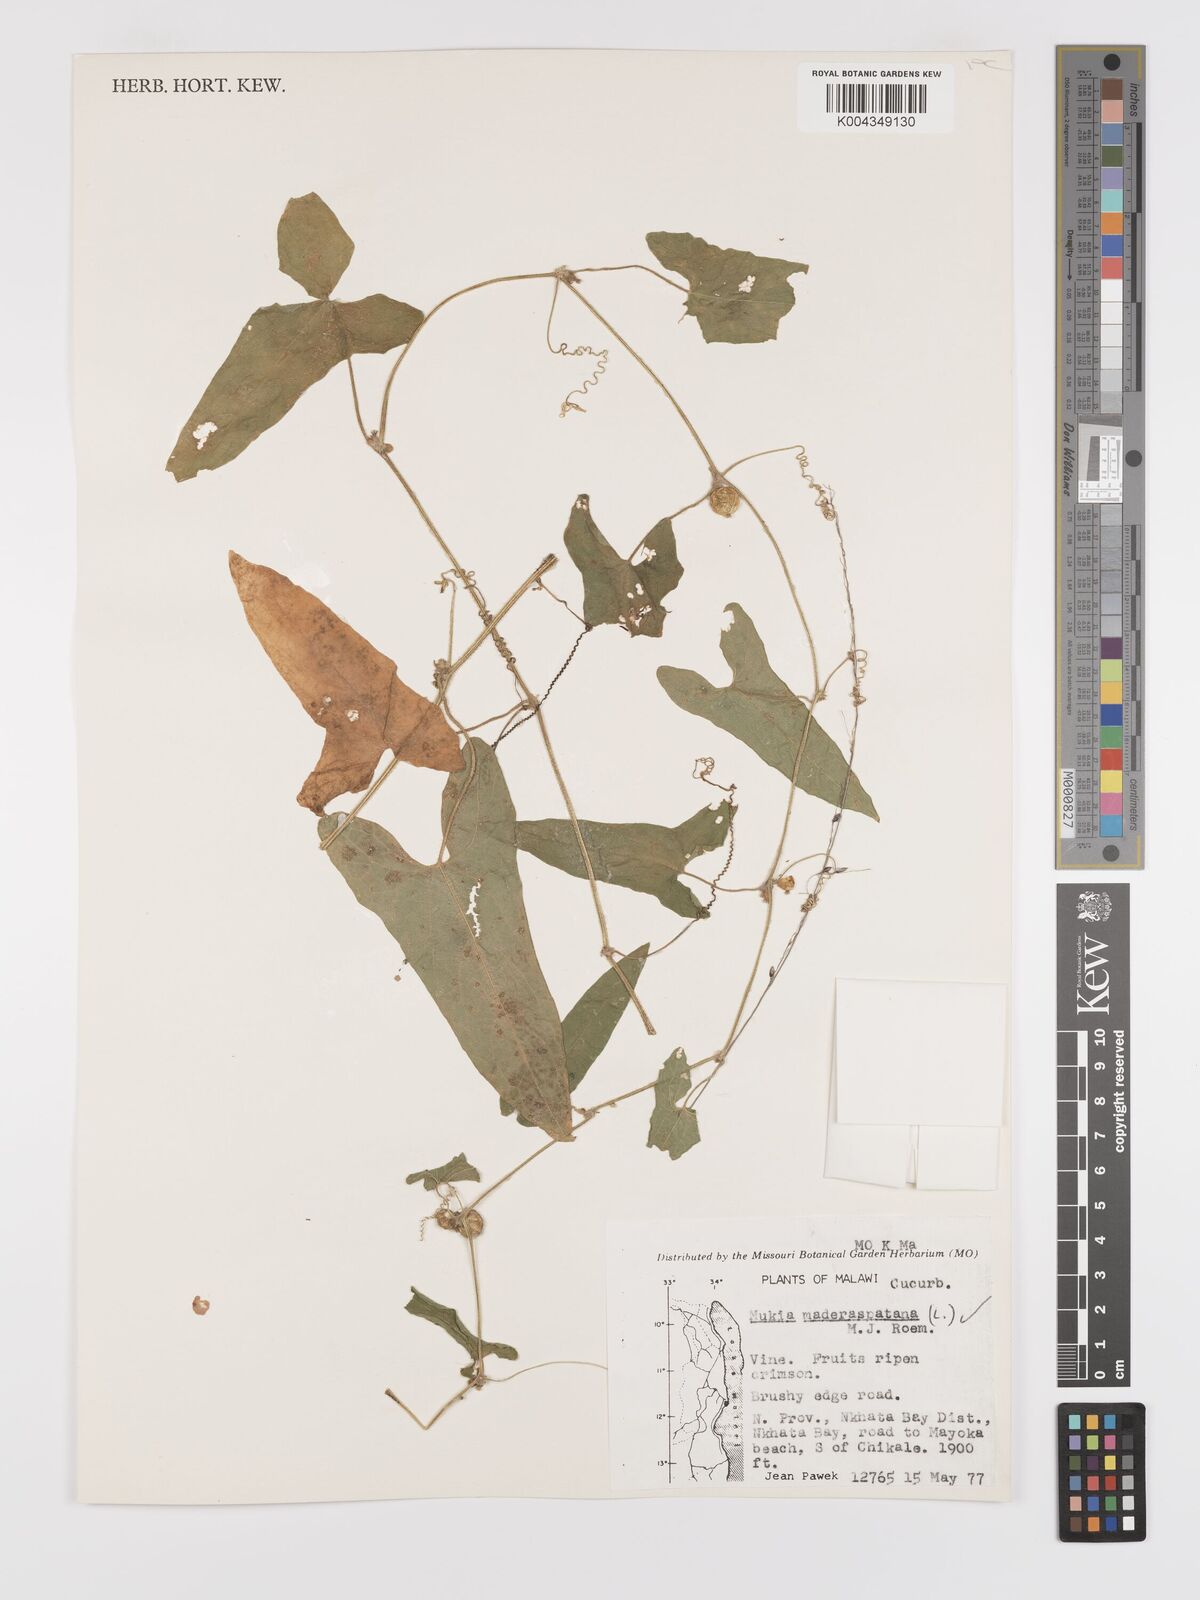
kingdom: Plantae
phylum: Tracheophyta
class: Magnoliopsida
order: Cucurbitales
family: Cucurbitaceae
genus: Cucumis
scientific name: Cucumis maderaspatanus
